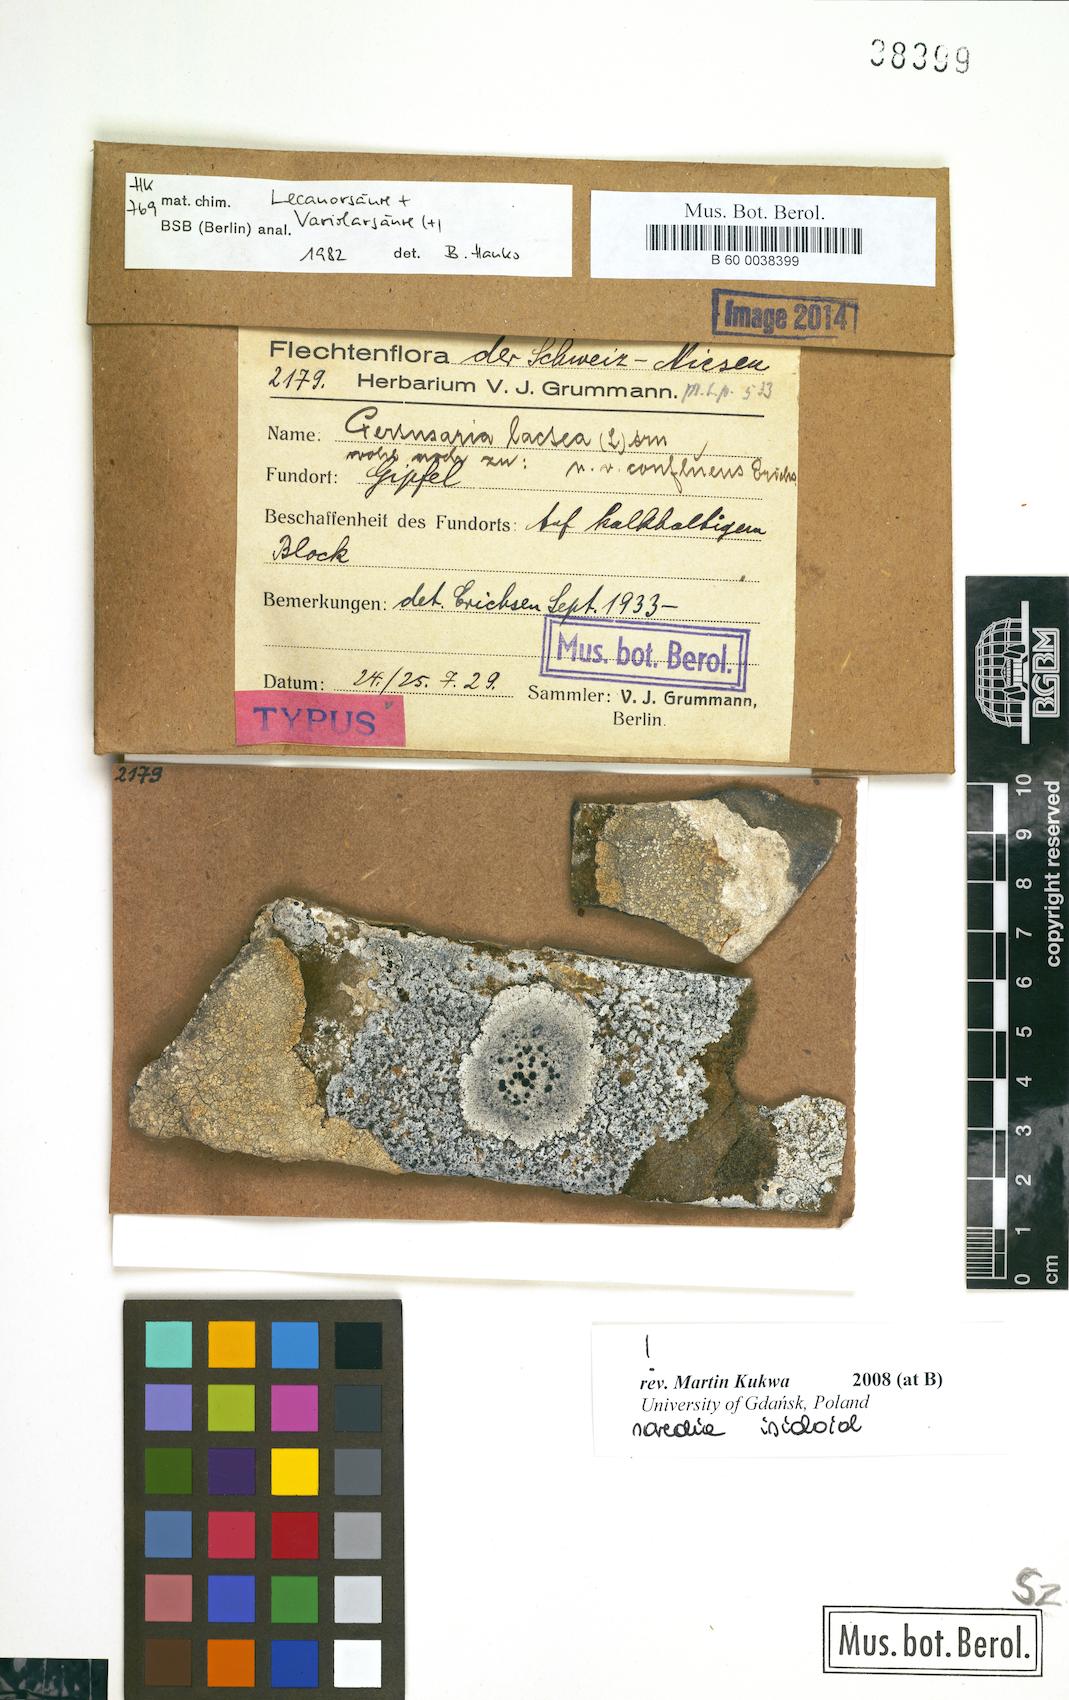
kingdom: Fungi
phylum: Ascomycota
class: Lecanoromycetes
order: Pertusariales
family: Varicellariaceae
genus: Varicellaria
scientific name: Varicellaria lactea
